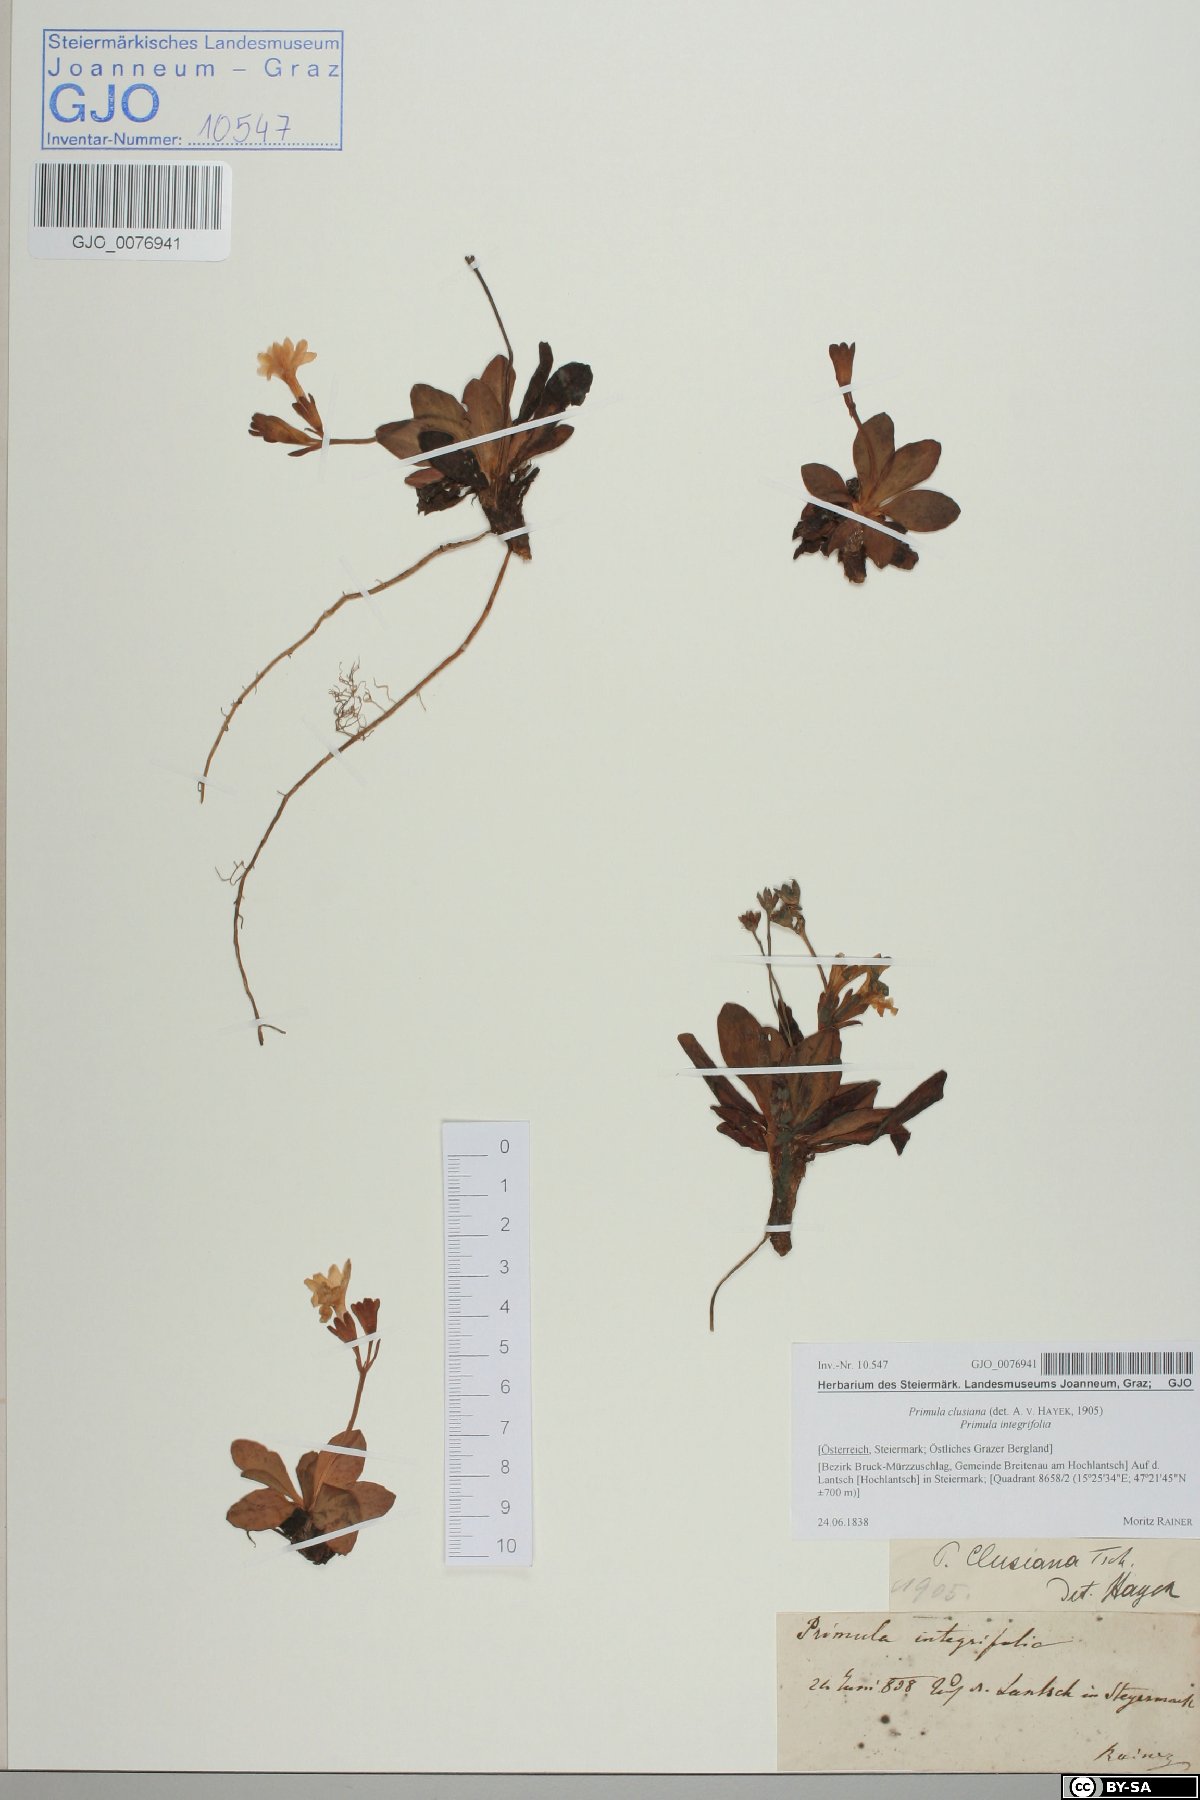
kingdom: Plantae
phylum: Tracheophyta
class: Magnoliopsida
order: Ericales
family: Primulaceae
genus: Primula
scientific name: Primula clusiana
